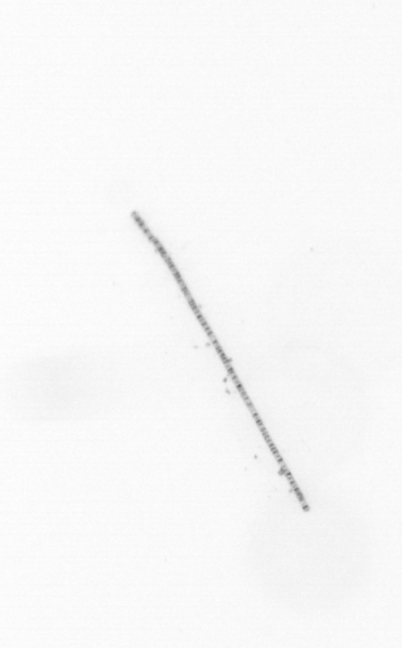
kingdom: Chromista
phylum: Ochrophyta
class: Bacillariophyceae
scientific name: Bacillariophyceae
